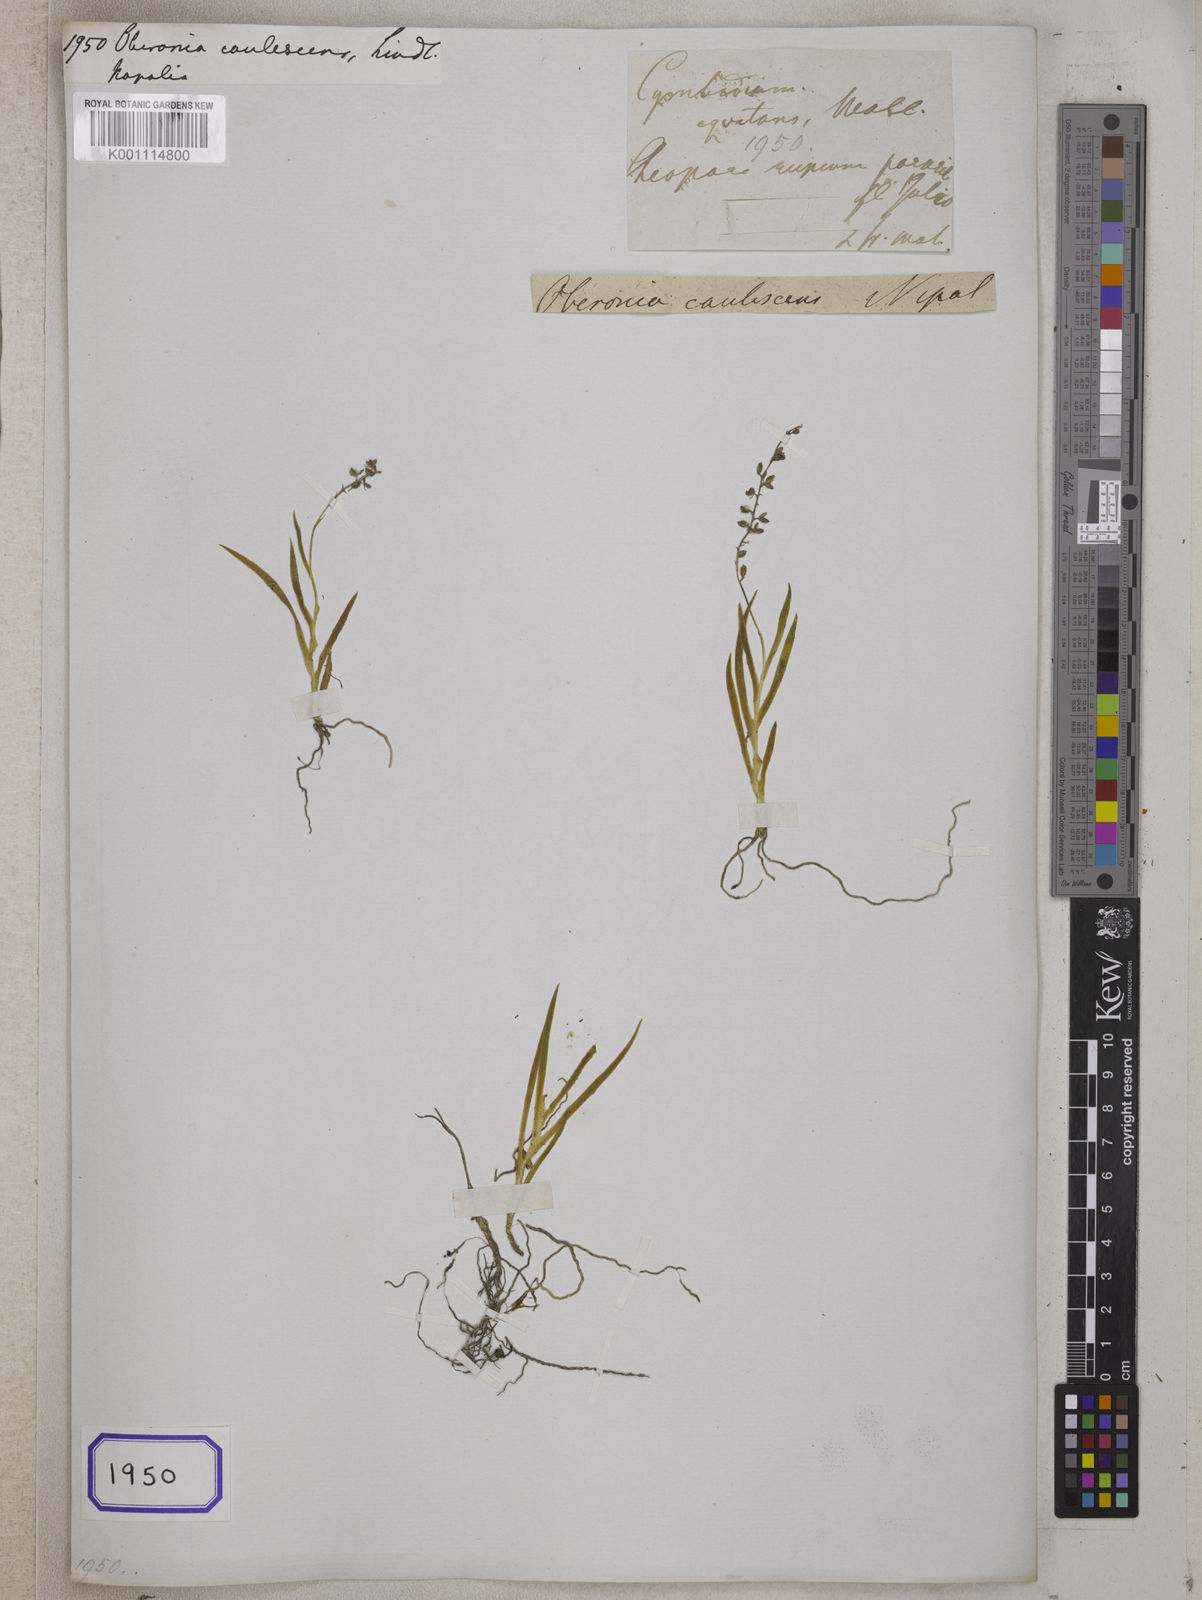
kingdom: Plantae
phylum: Tracheophyta
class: Liliopsida
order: Asparagales
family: Orchidaceae
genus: Oberonia
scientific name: Oberonia caulescens
